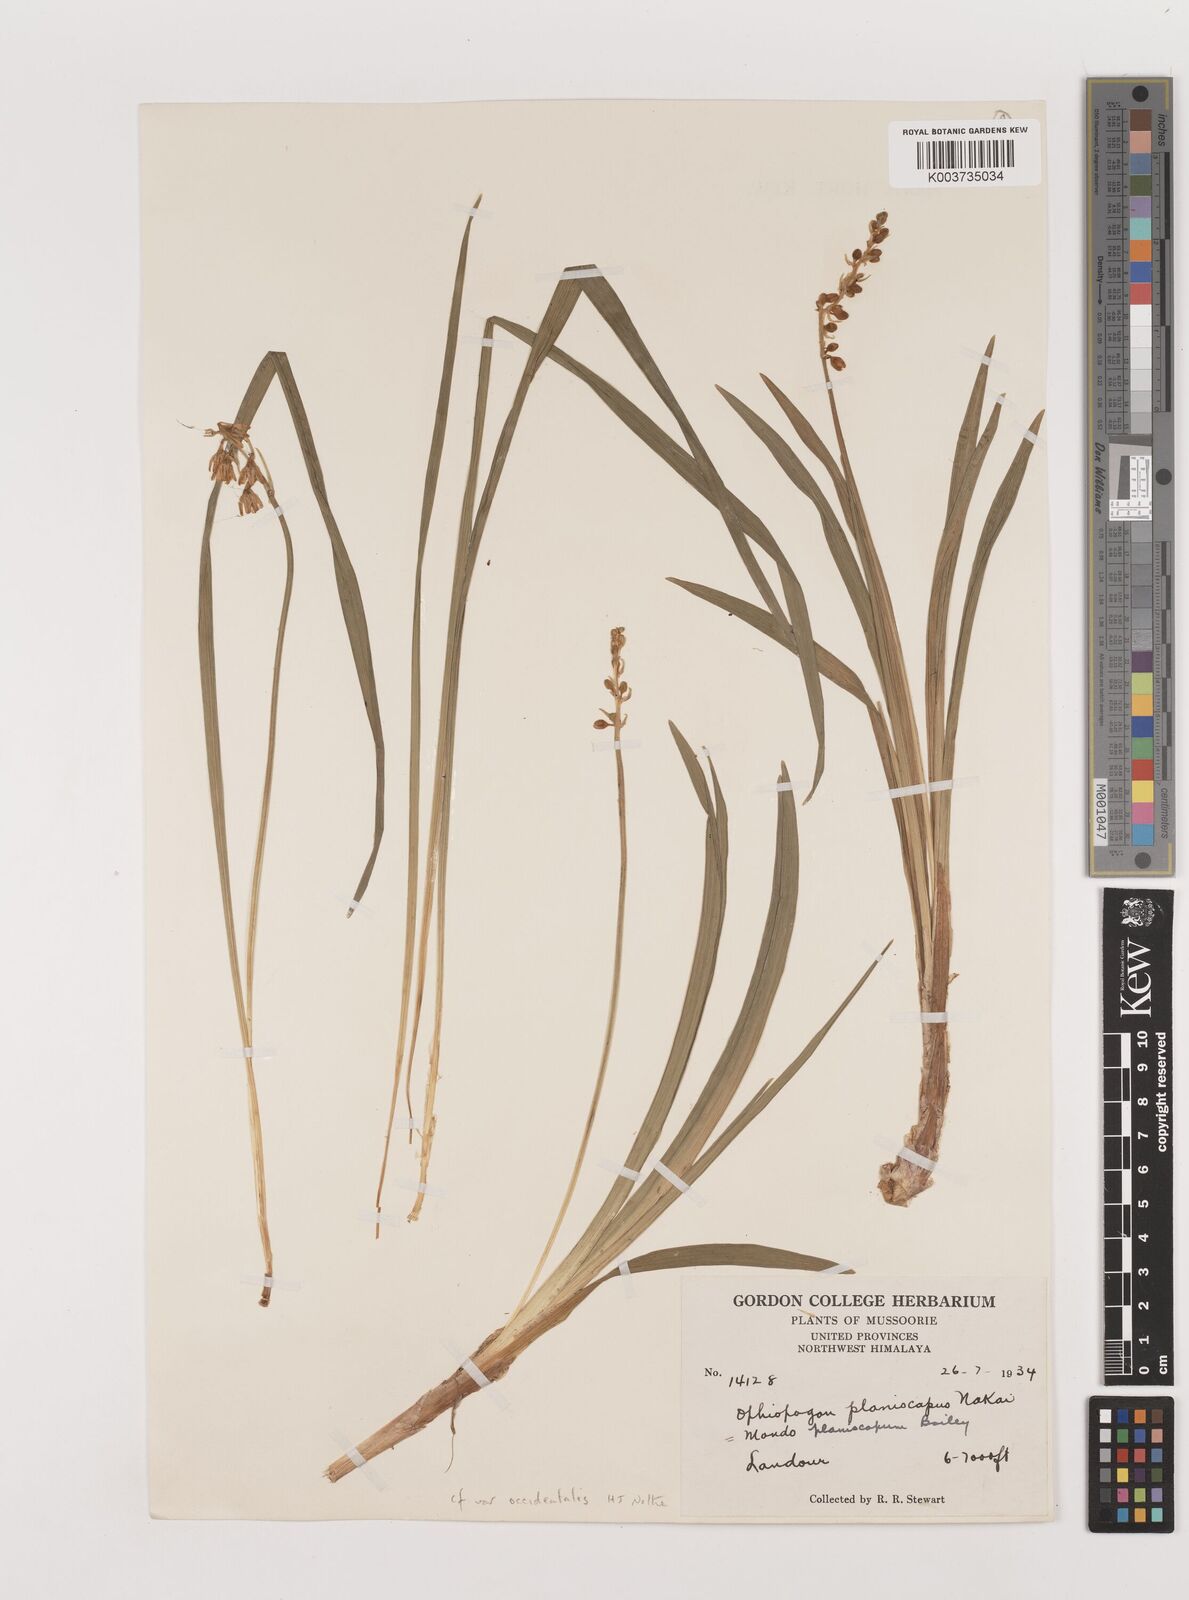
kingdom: Plantae
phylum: Tracheophyta
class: Liliopsida
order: Asparagales
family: Asparagaceae
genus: Ophiopogon
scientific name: Ophiopogon intermedius
